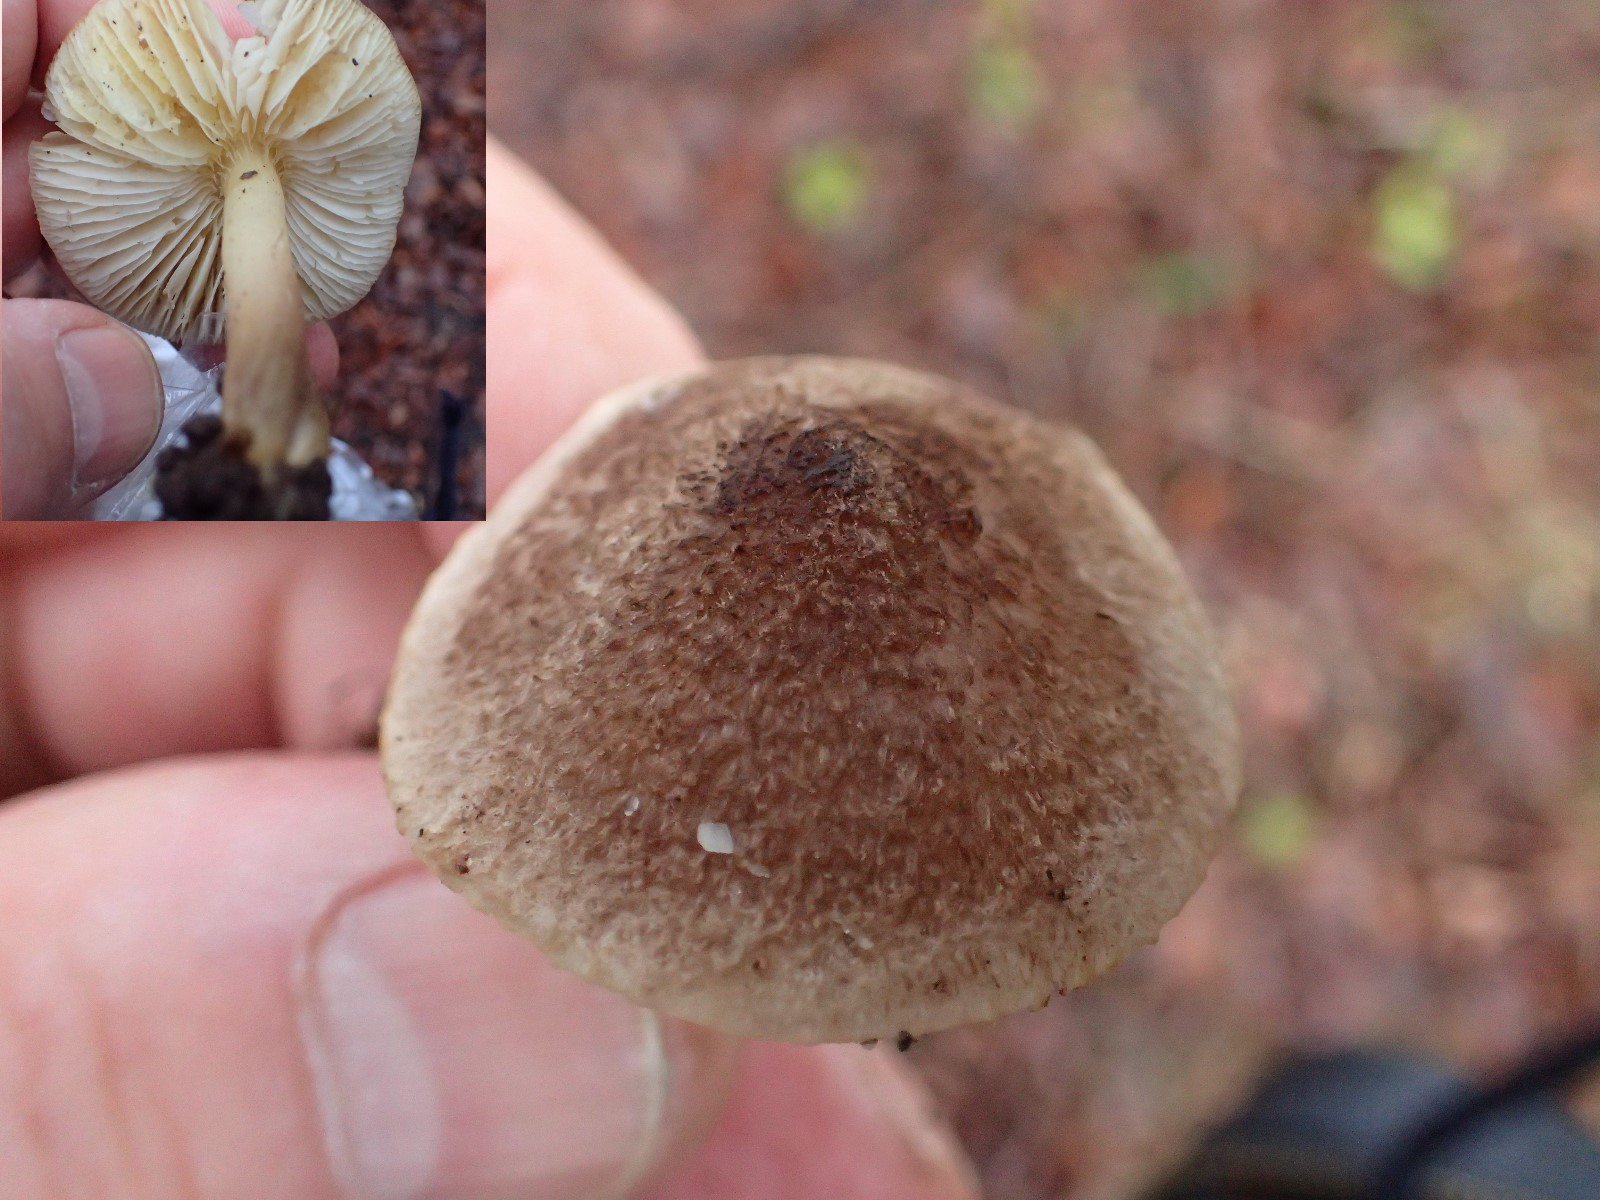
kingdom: Fungi
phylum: Basidiomycota
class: Agaricomycetes
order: Agaricales
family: Tricholomataceae
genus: Tricholoma
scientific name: Tricholoma scalpturatum
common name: gulplettet ridderhat
